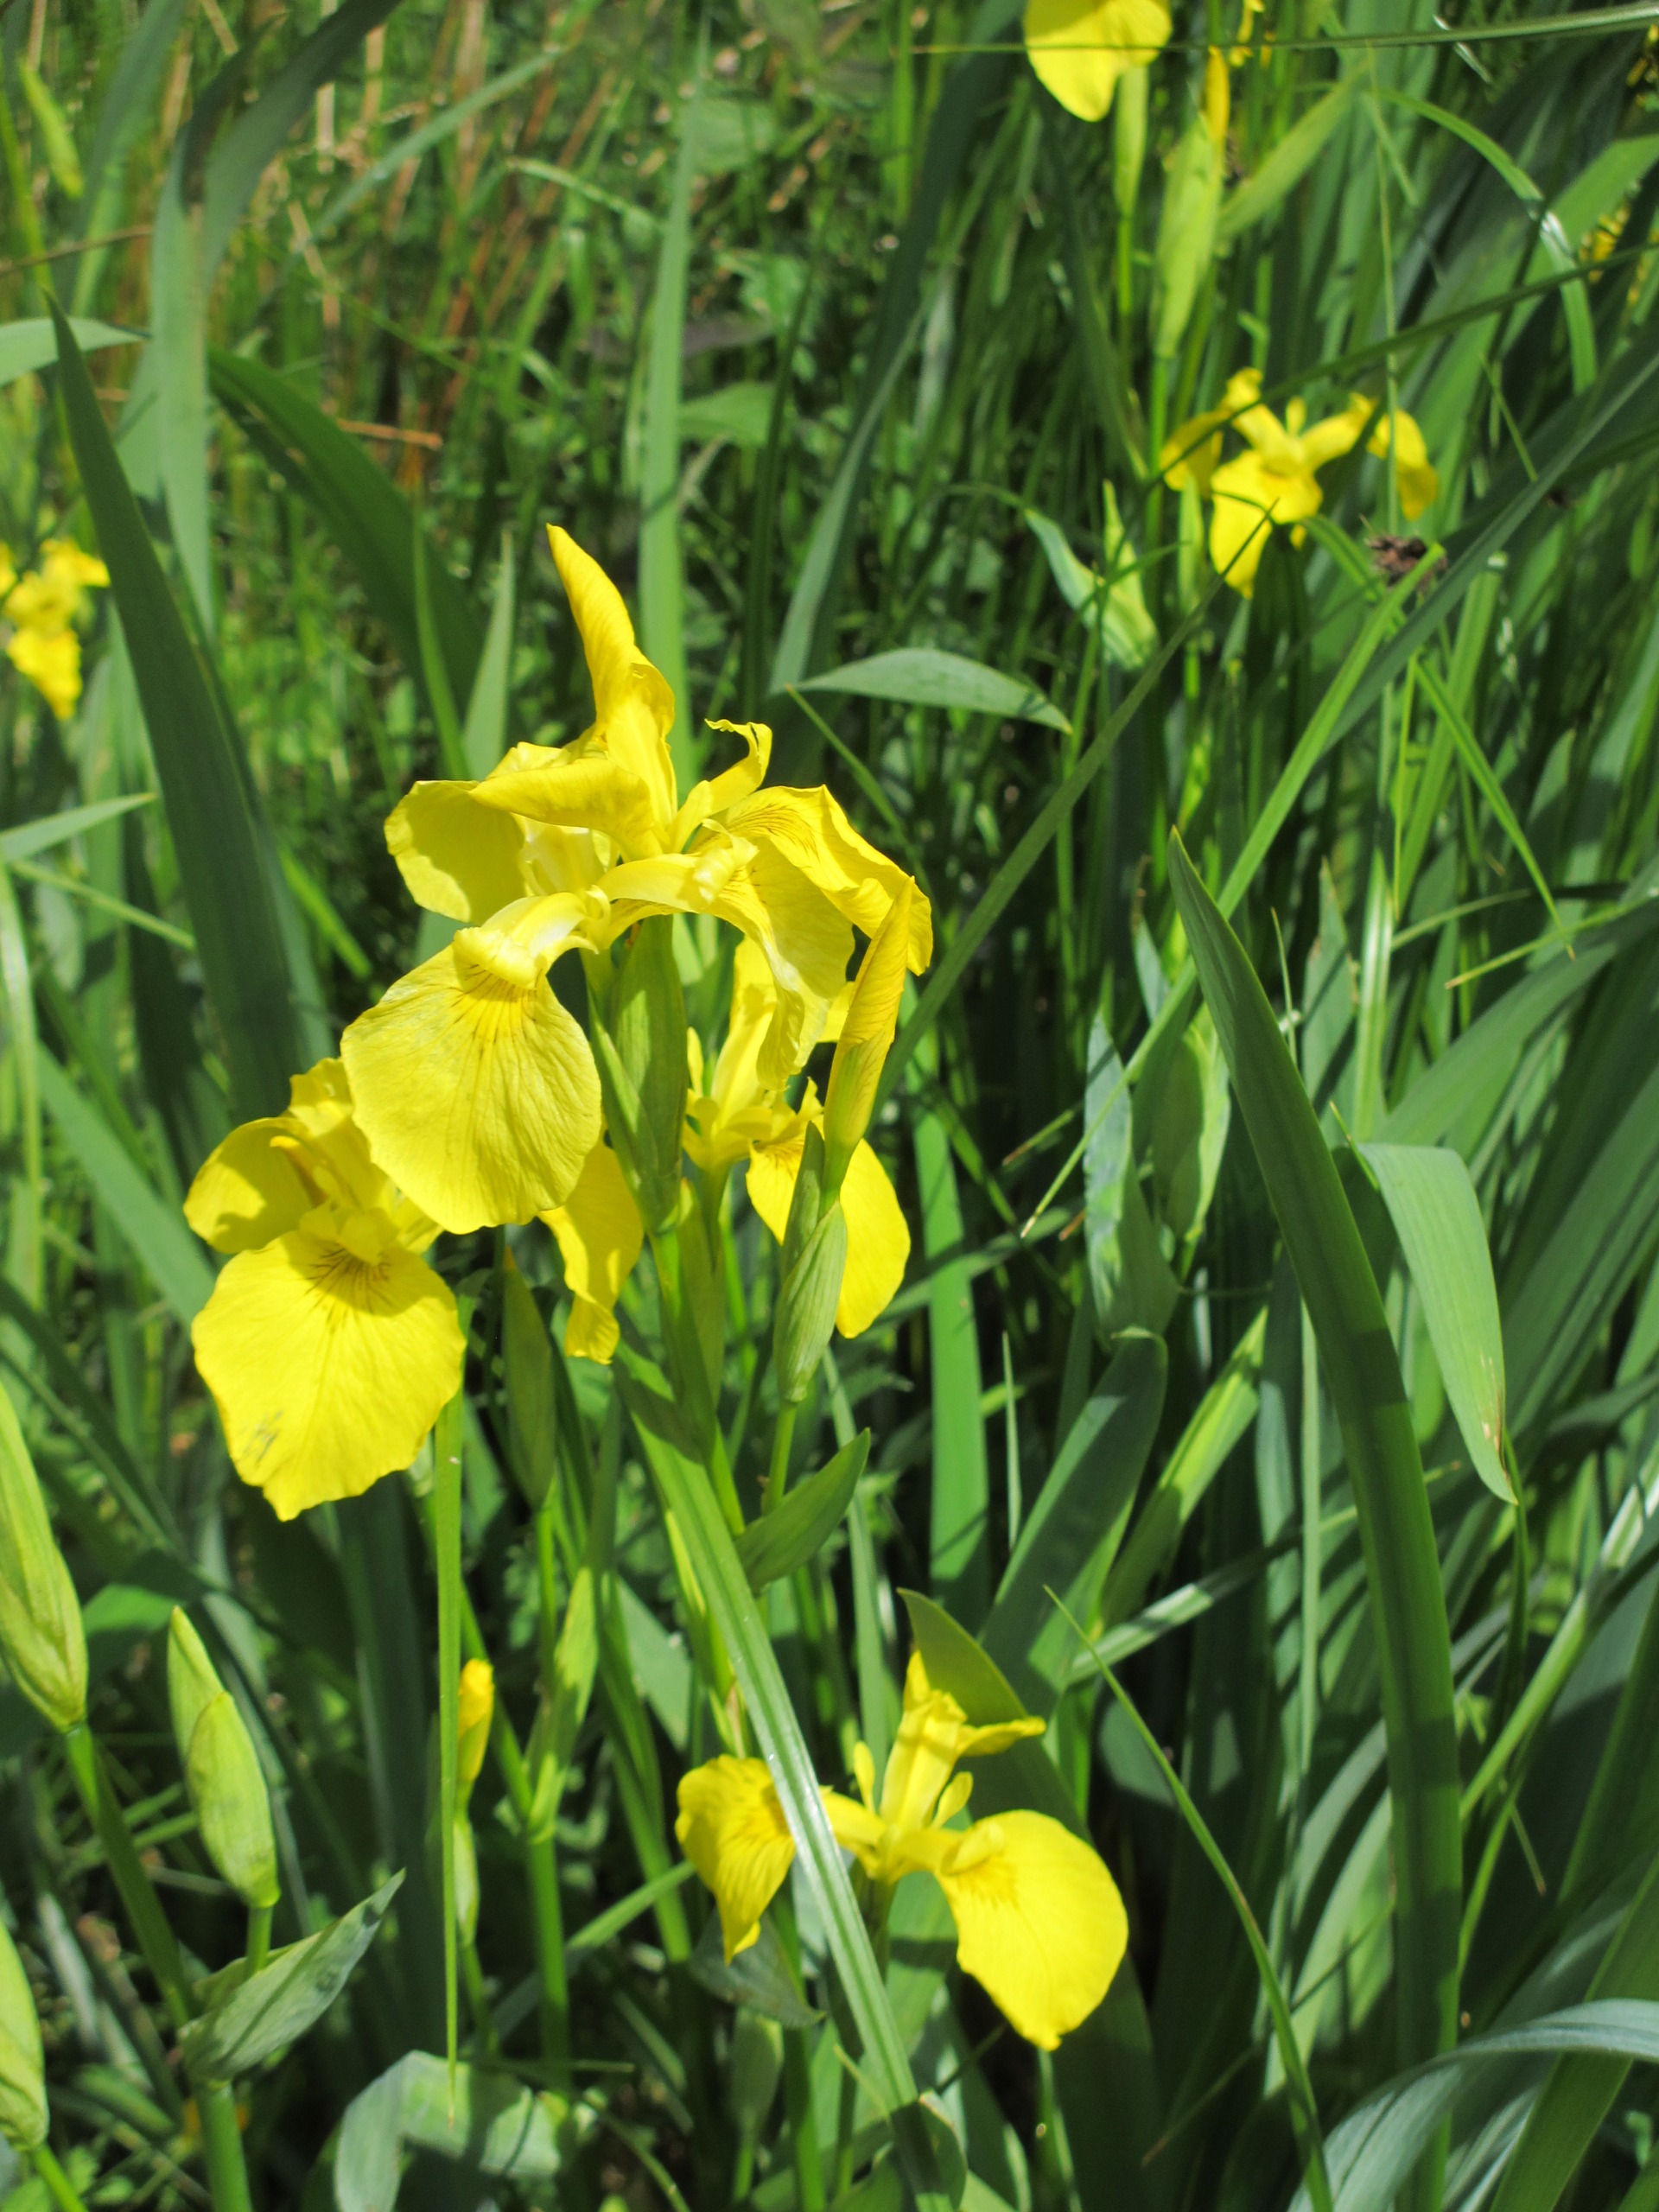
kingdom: Plantae
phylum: Tracheophyta
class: Liliopsida
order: Asparagales
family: Iridaceae
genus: Iris
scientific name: Iris pseudacorus
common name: Gul iris
